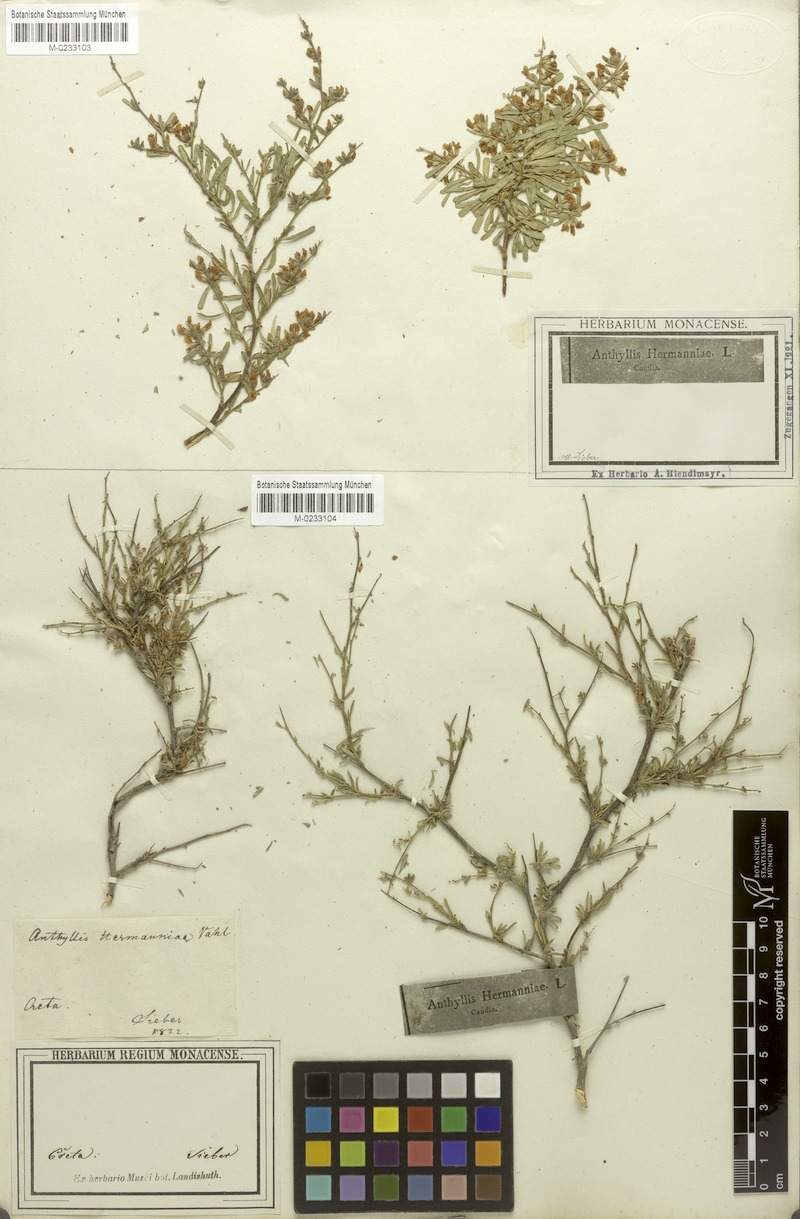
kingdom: Plantae
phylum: Tracheophyta
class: Magnoliopsida
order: Fabales
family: Fabaceae
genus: Anthyllis
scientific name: Anthyllis hermanniae
